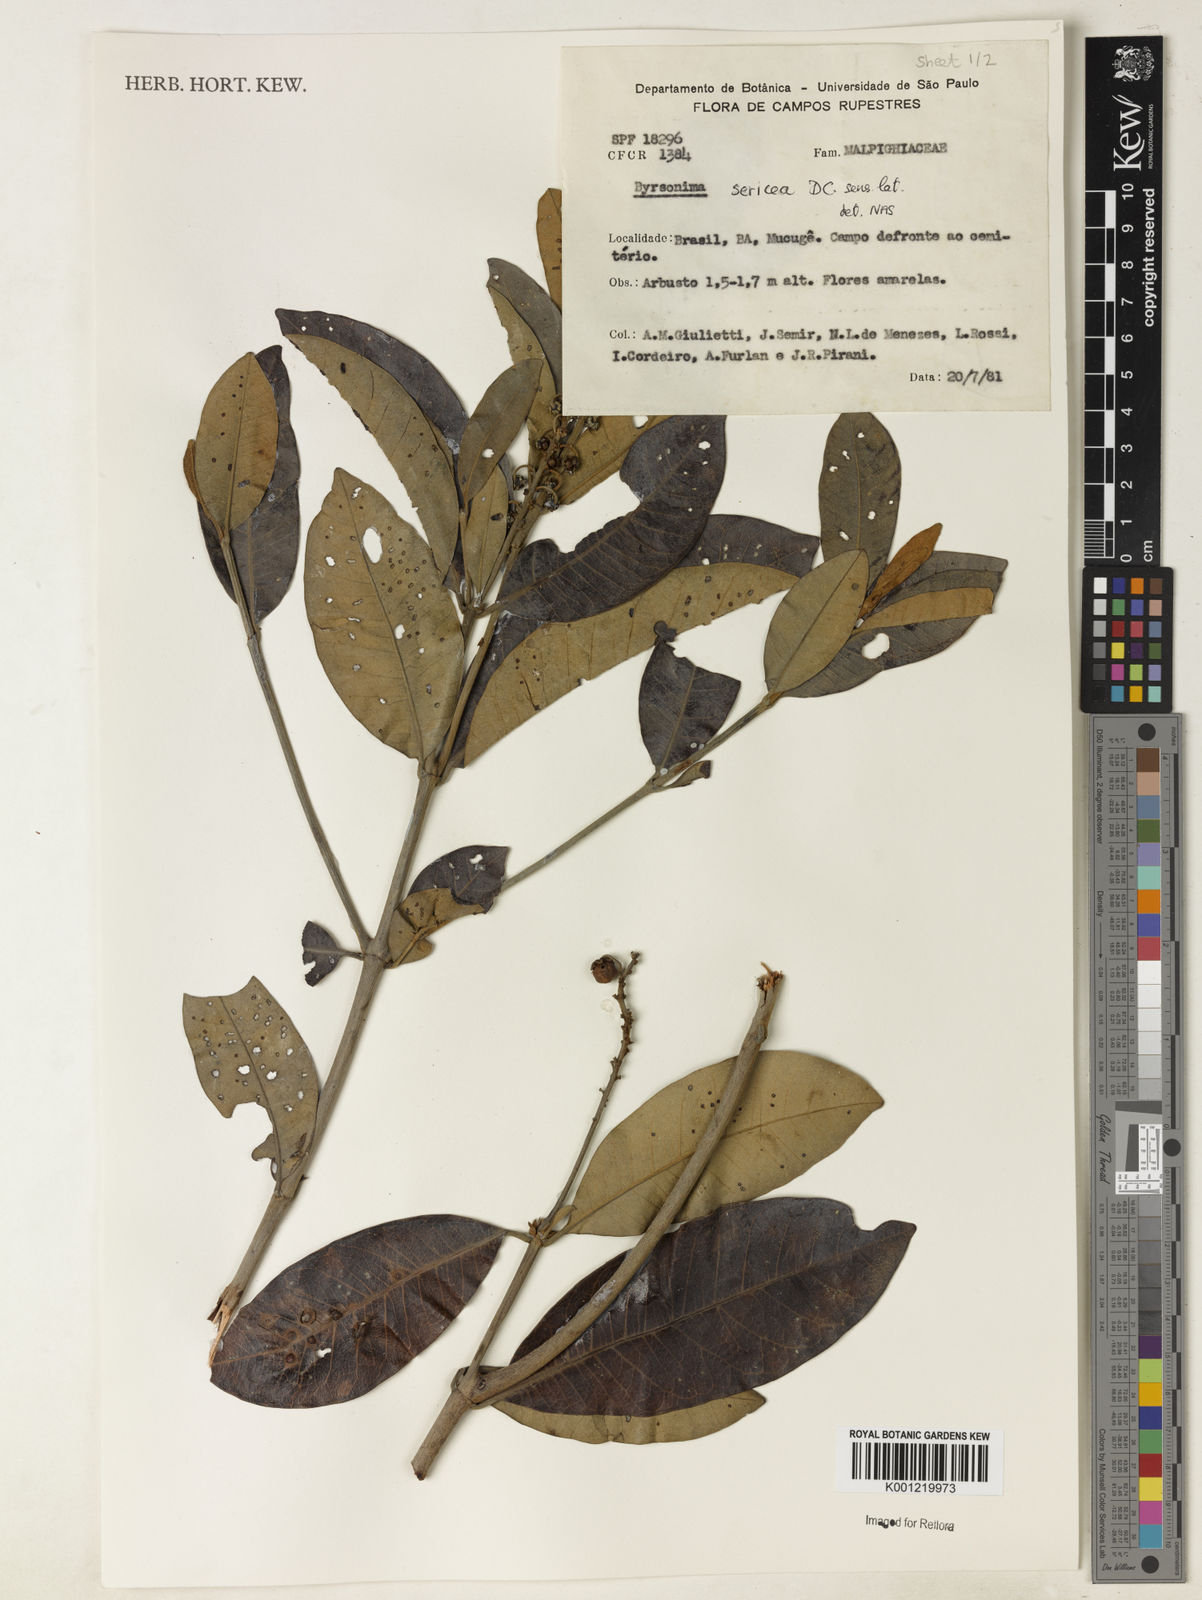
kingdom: Plantae
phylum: Tracheophyta
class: Magnoliopsida
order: Malpighiales
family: Malpighiaceae
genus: Byrsonima
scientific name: Byrsonima sericea
